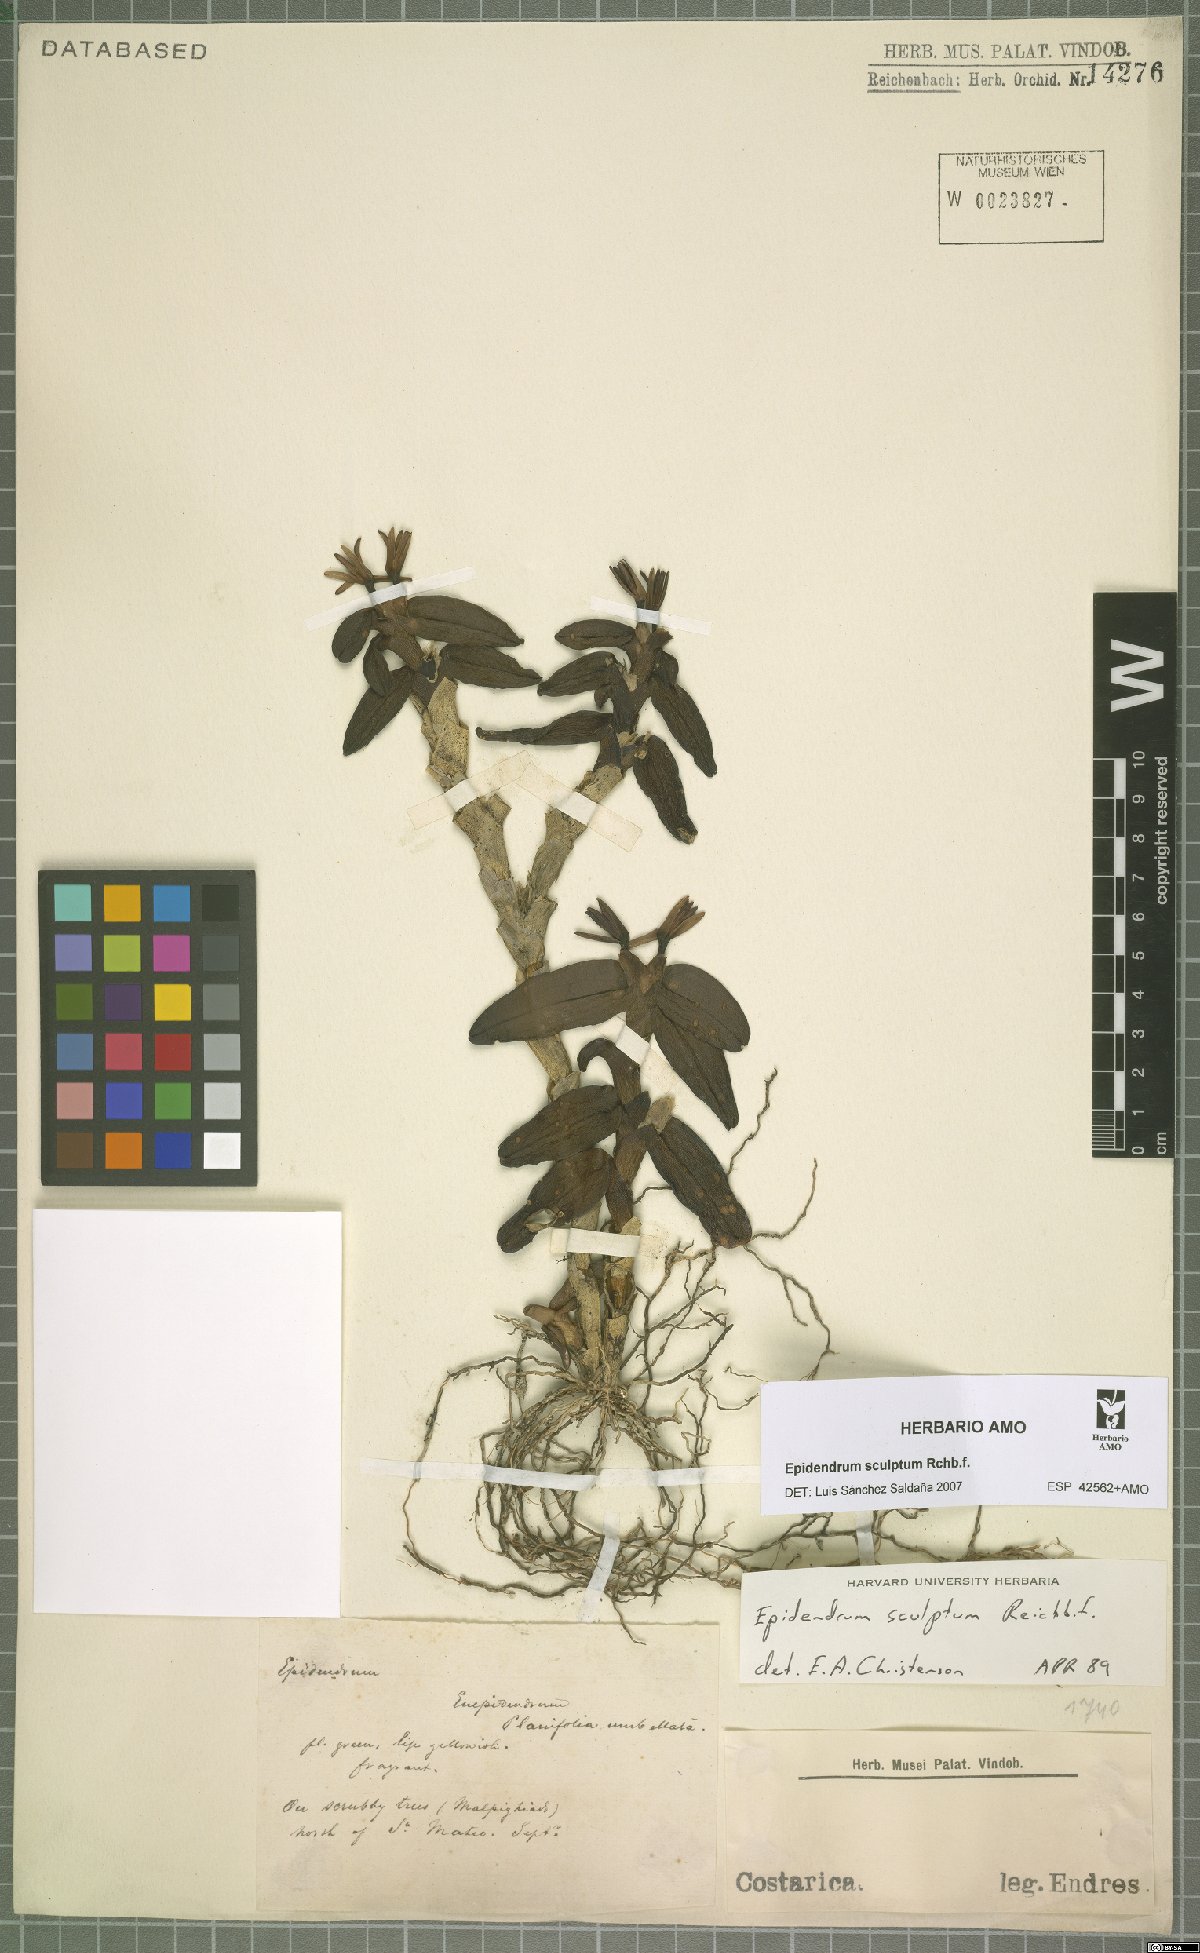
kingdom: Plantae
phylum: Tracheophyta
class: Liliopsida
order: Asparagales
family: Orchidaceae
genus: Epidendrum
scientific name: Epidendrum sculptum
